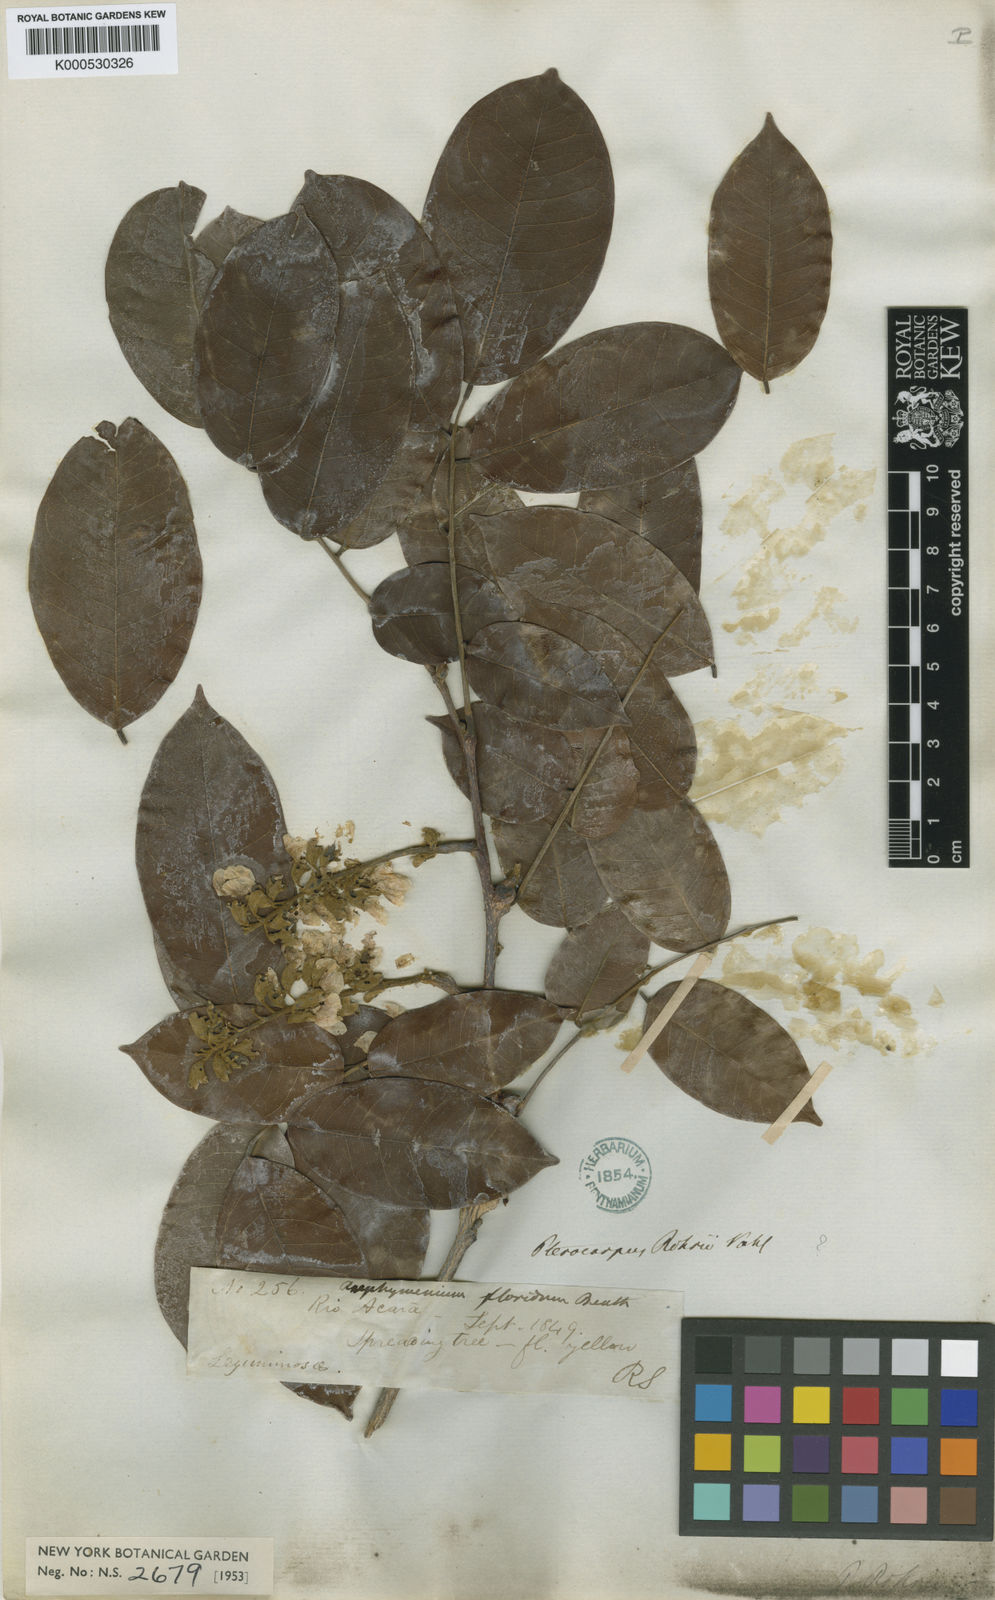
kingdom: Plantae
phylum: Tracheophyta
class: Magnoliopsida
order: Fabales
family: Fabaceae
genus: Pterocarpus
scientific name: Pterocarpus rohrii
